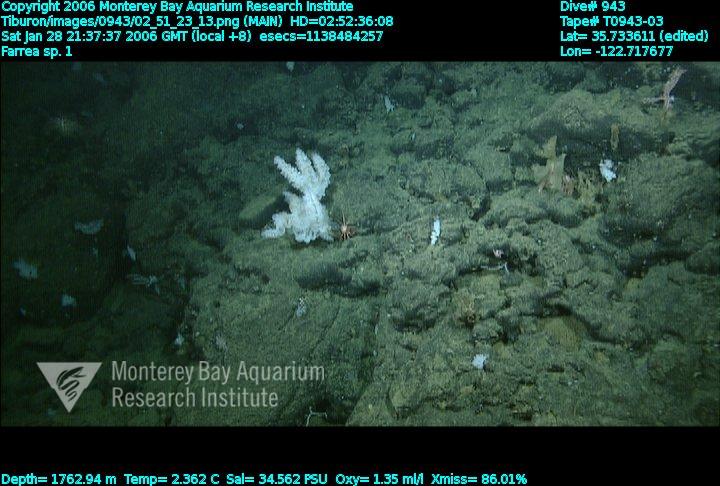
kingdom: Animalia
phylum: Porifera
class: Hexactinellida
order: Sceptrulophora
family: Farreidae
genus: Farrea
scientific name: Farrea truncata
